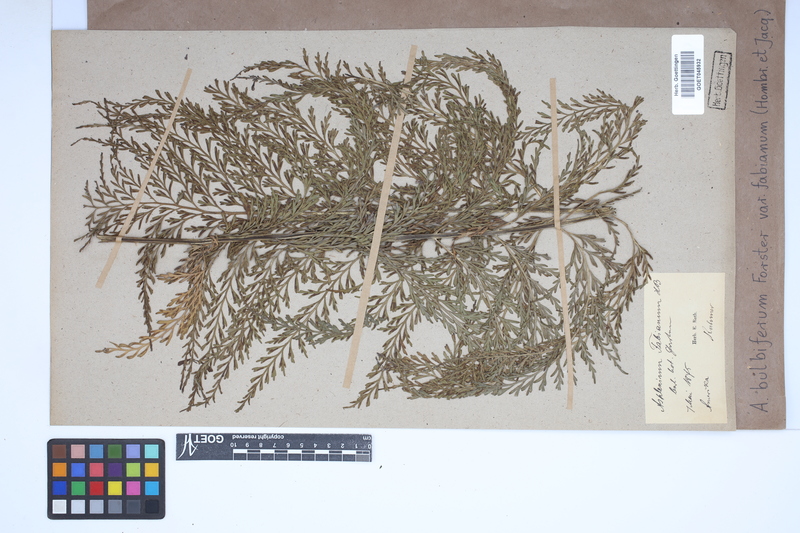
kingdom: Plantae
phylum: Tracheophyta
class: Polypodiopsida
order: Polypodiales
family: Aspleniaceae
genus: Asplenium
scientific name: Asplenium bulbiferum
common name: Mother fern
